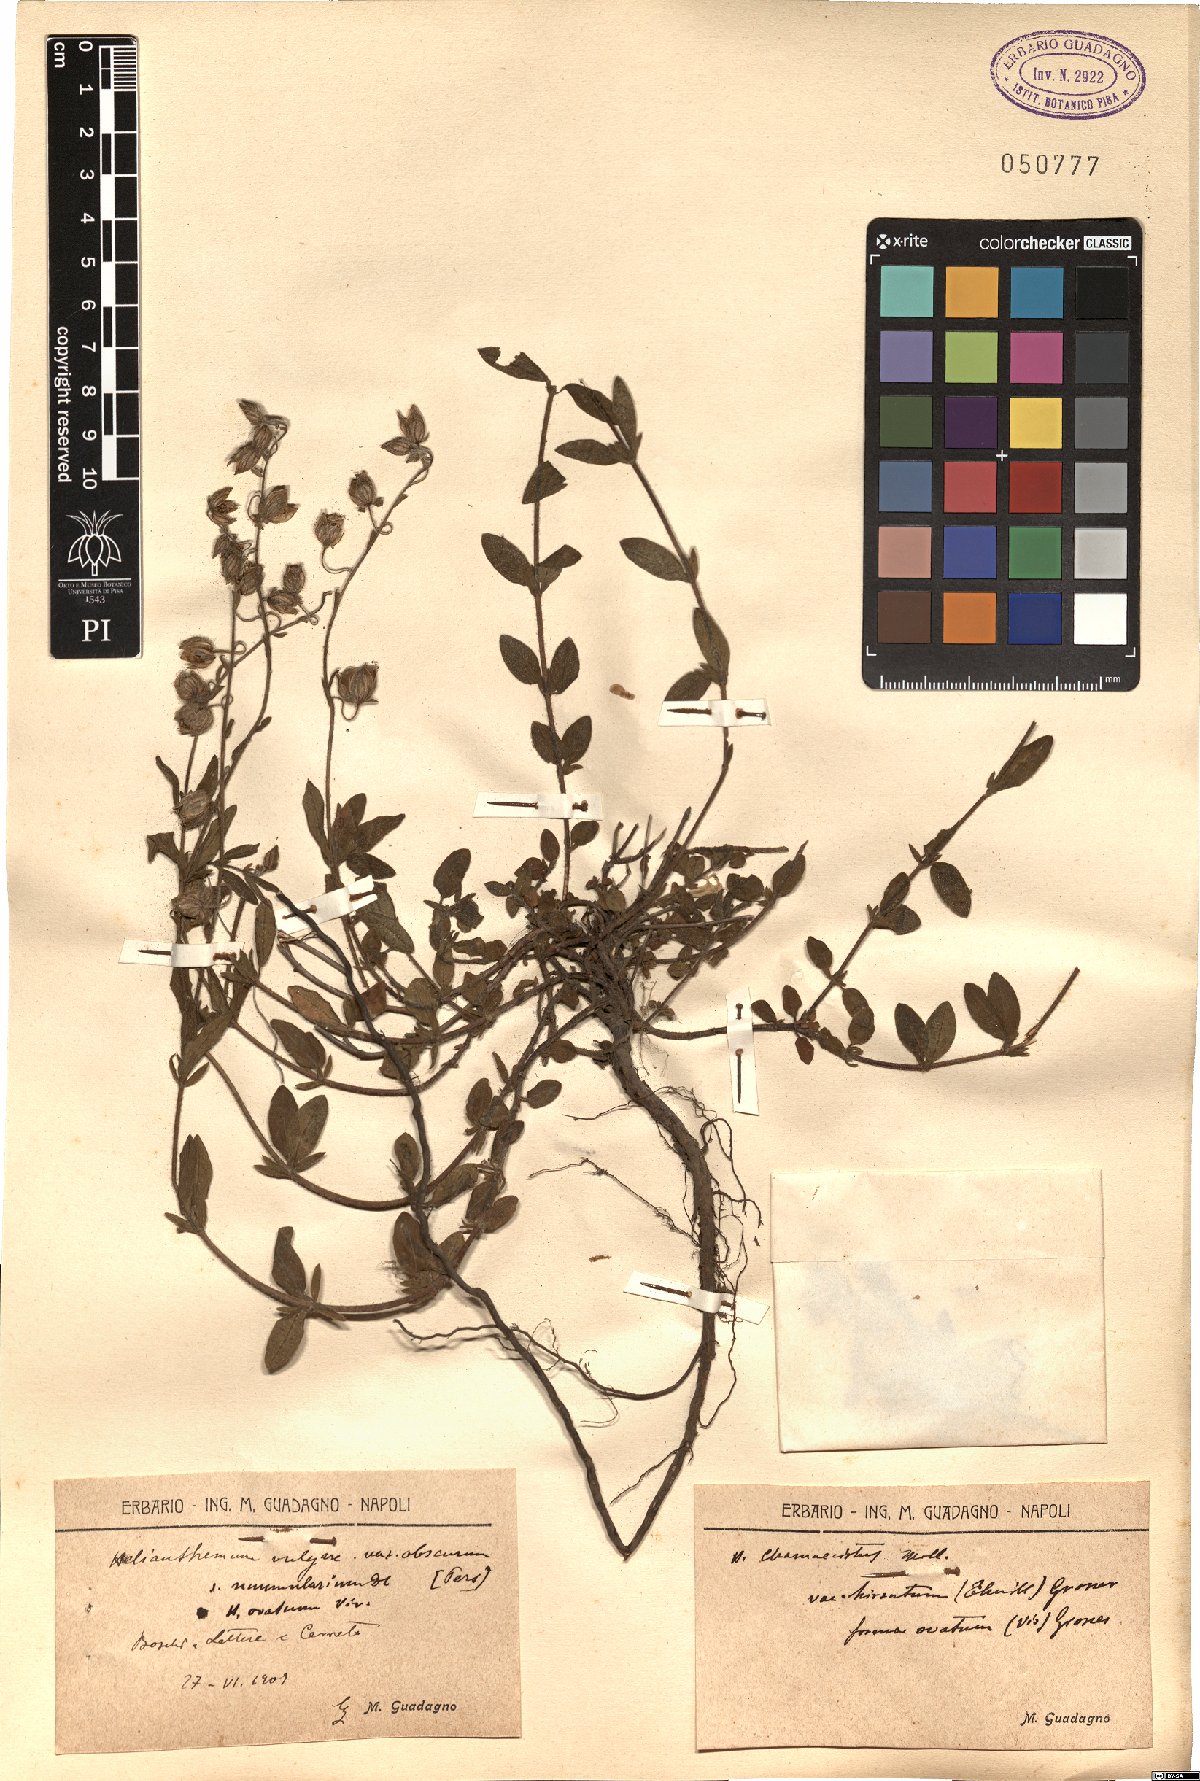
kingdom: Plantae
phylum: Tracheophyta
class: Magnoliopsida
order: Malvales
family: Cistaceae
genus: Helianthemum
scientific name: Helianthemum nummularium
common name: Common rock-rose
